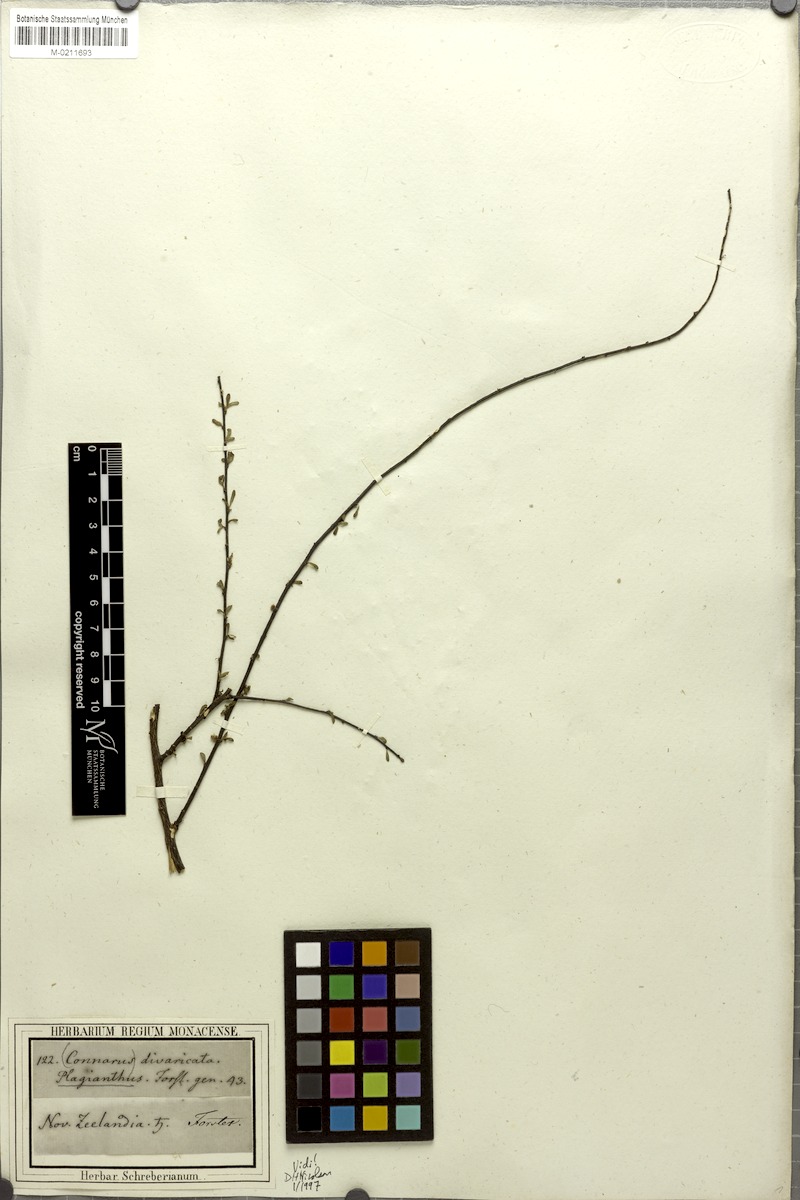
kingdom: Plantae
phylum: Tracheophyta
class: Magnoliopsida
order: Malvales
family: Malvaceae
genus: Plagianthus
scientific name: Plagianthus divaricatus
